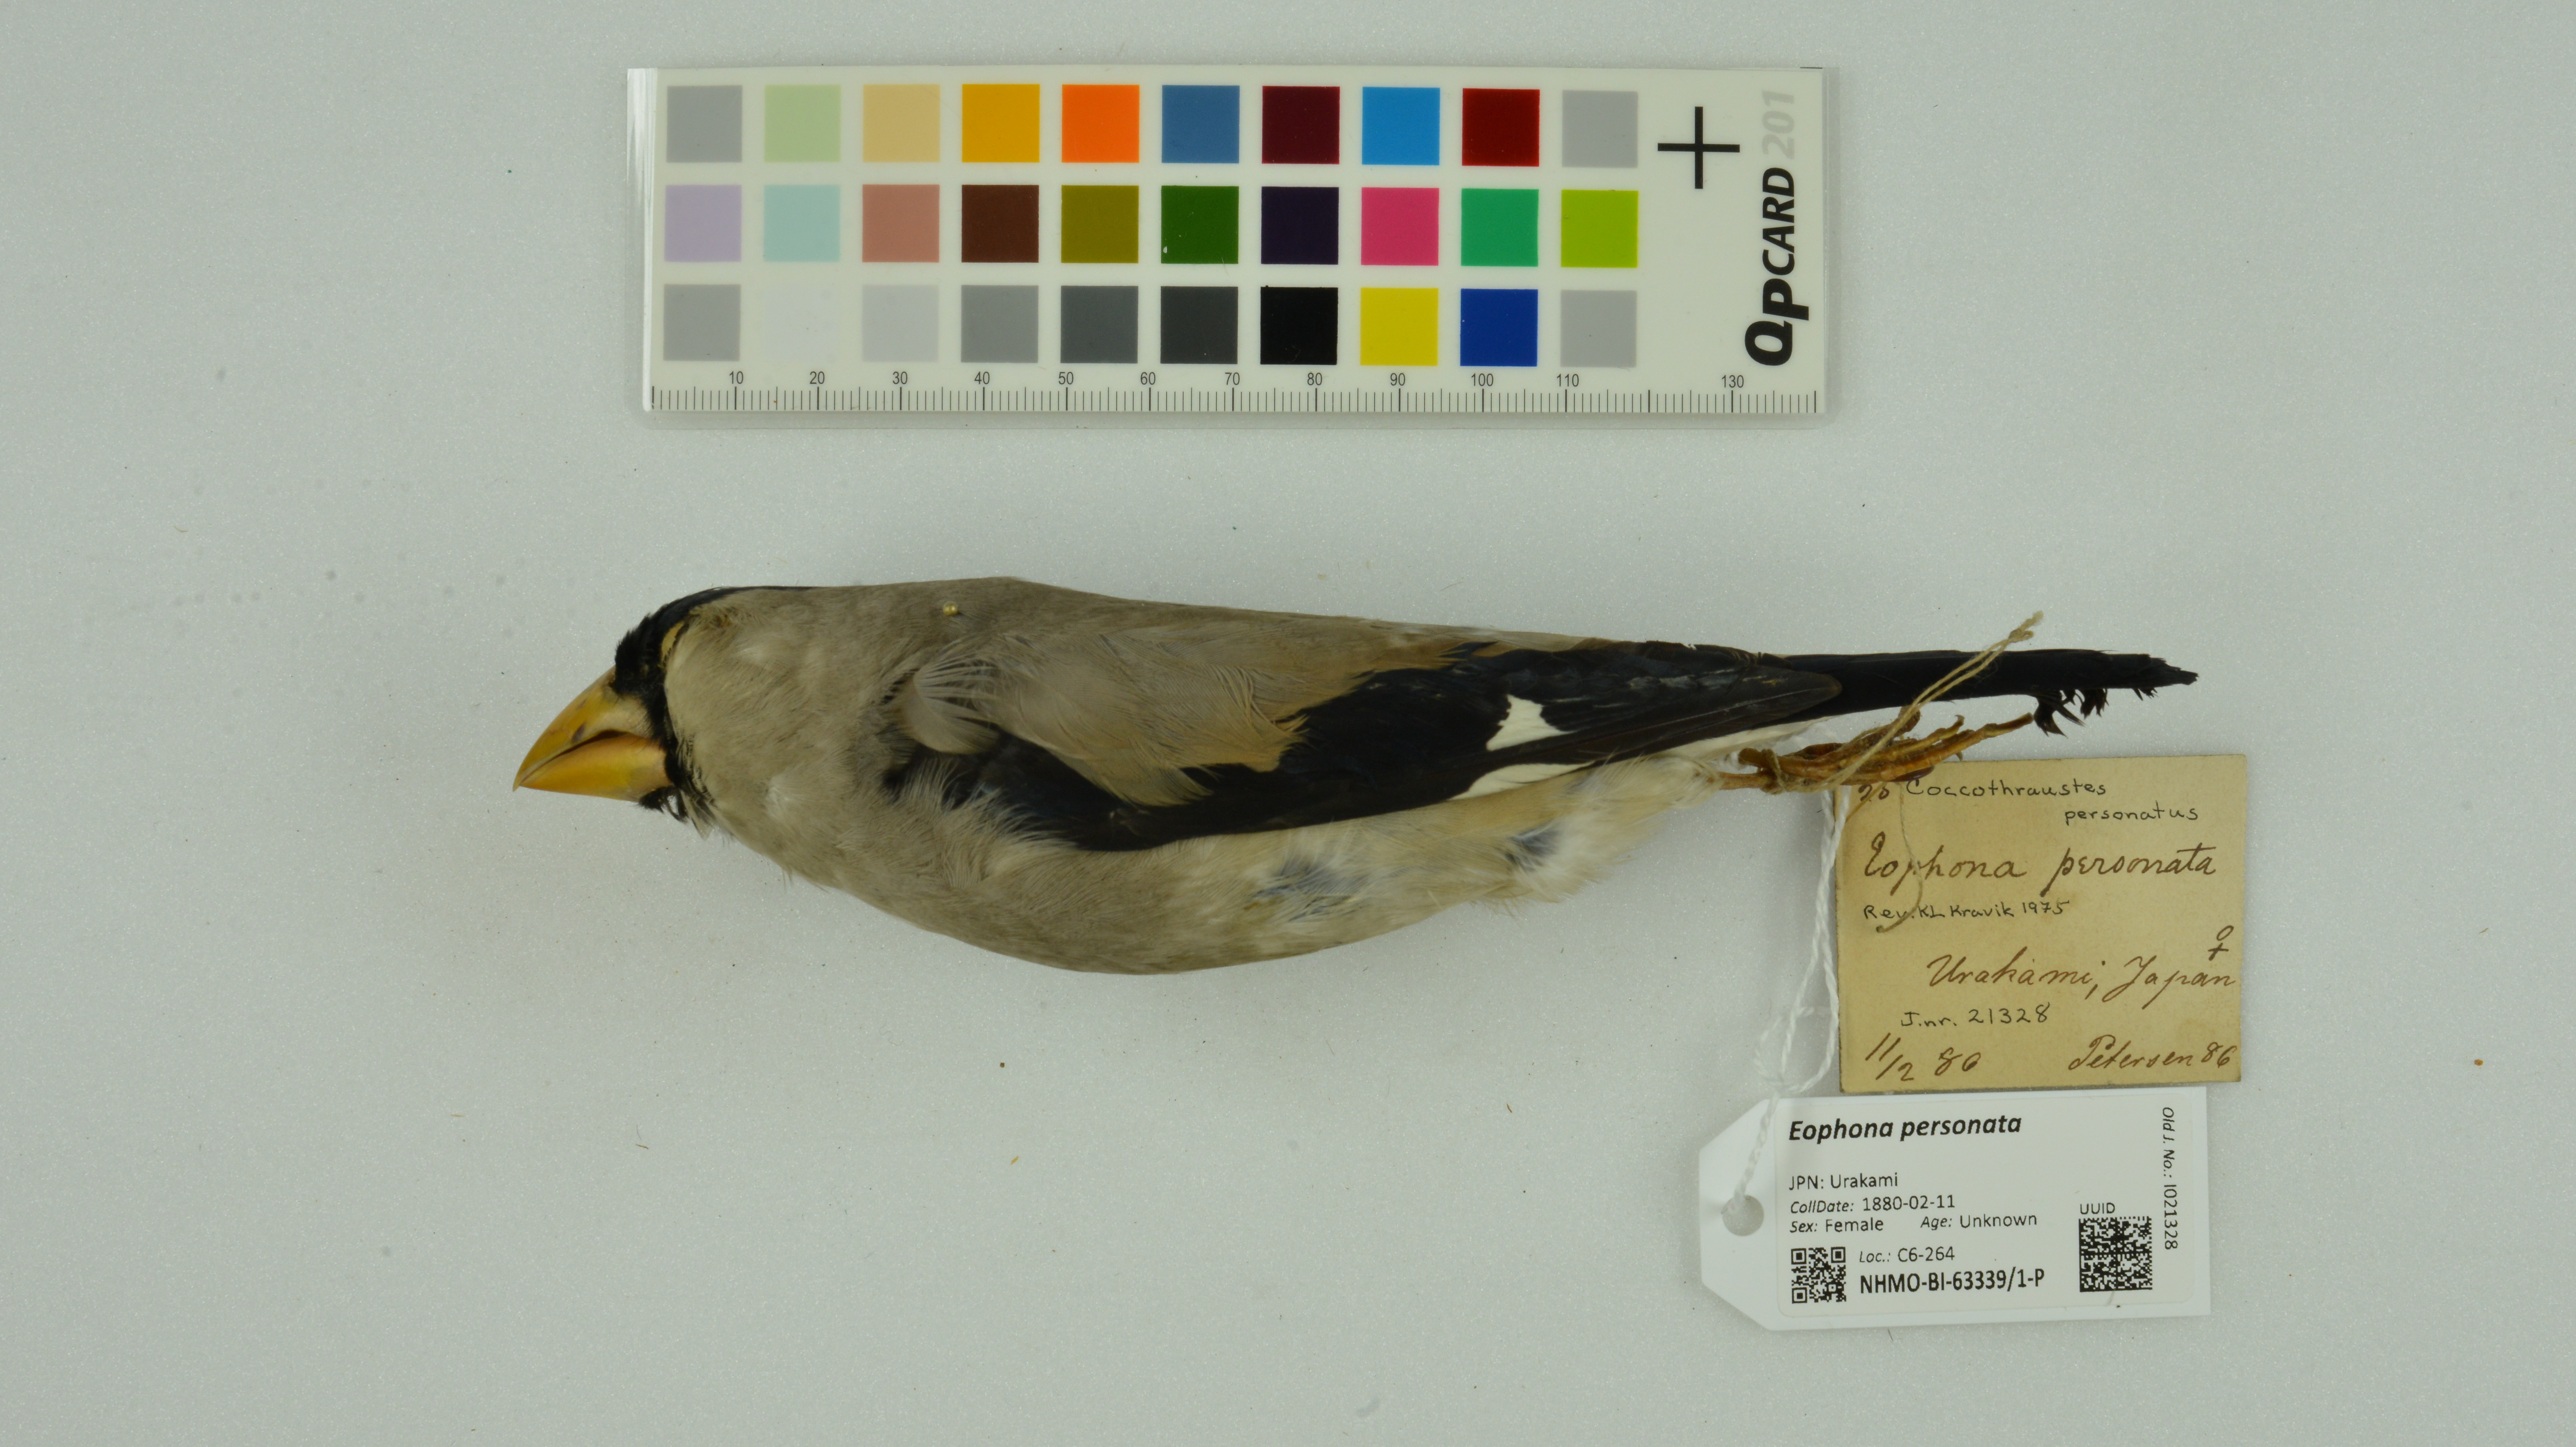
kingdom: Animalia
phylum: Chordata
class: Aves
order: Passeriformes
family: Fringillidae
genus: Eophona
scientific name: Eophona personata
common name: Japanese grosbeak
